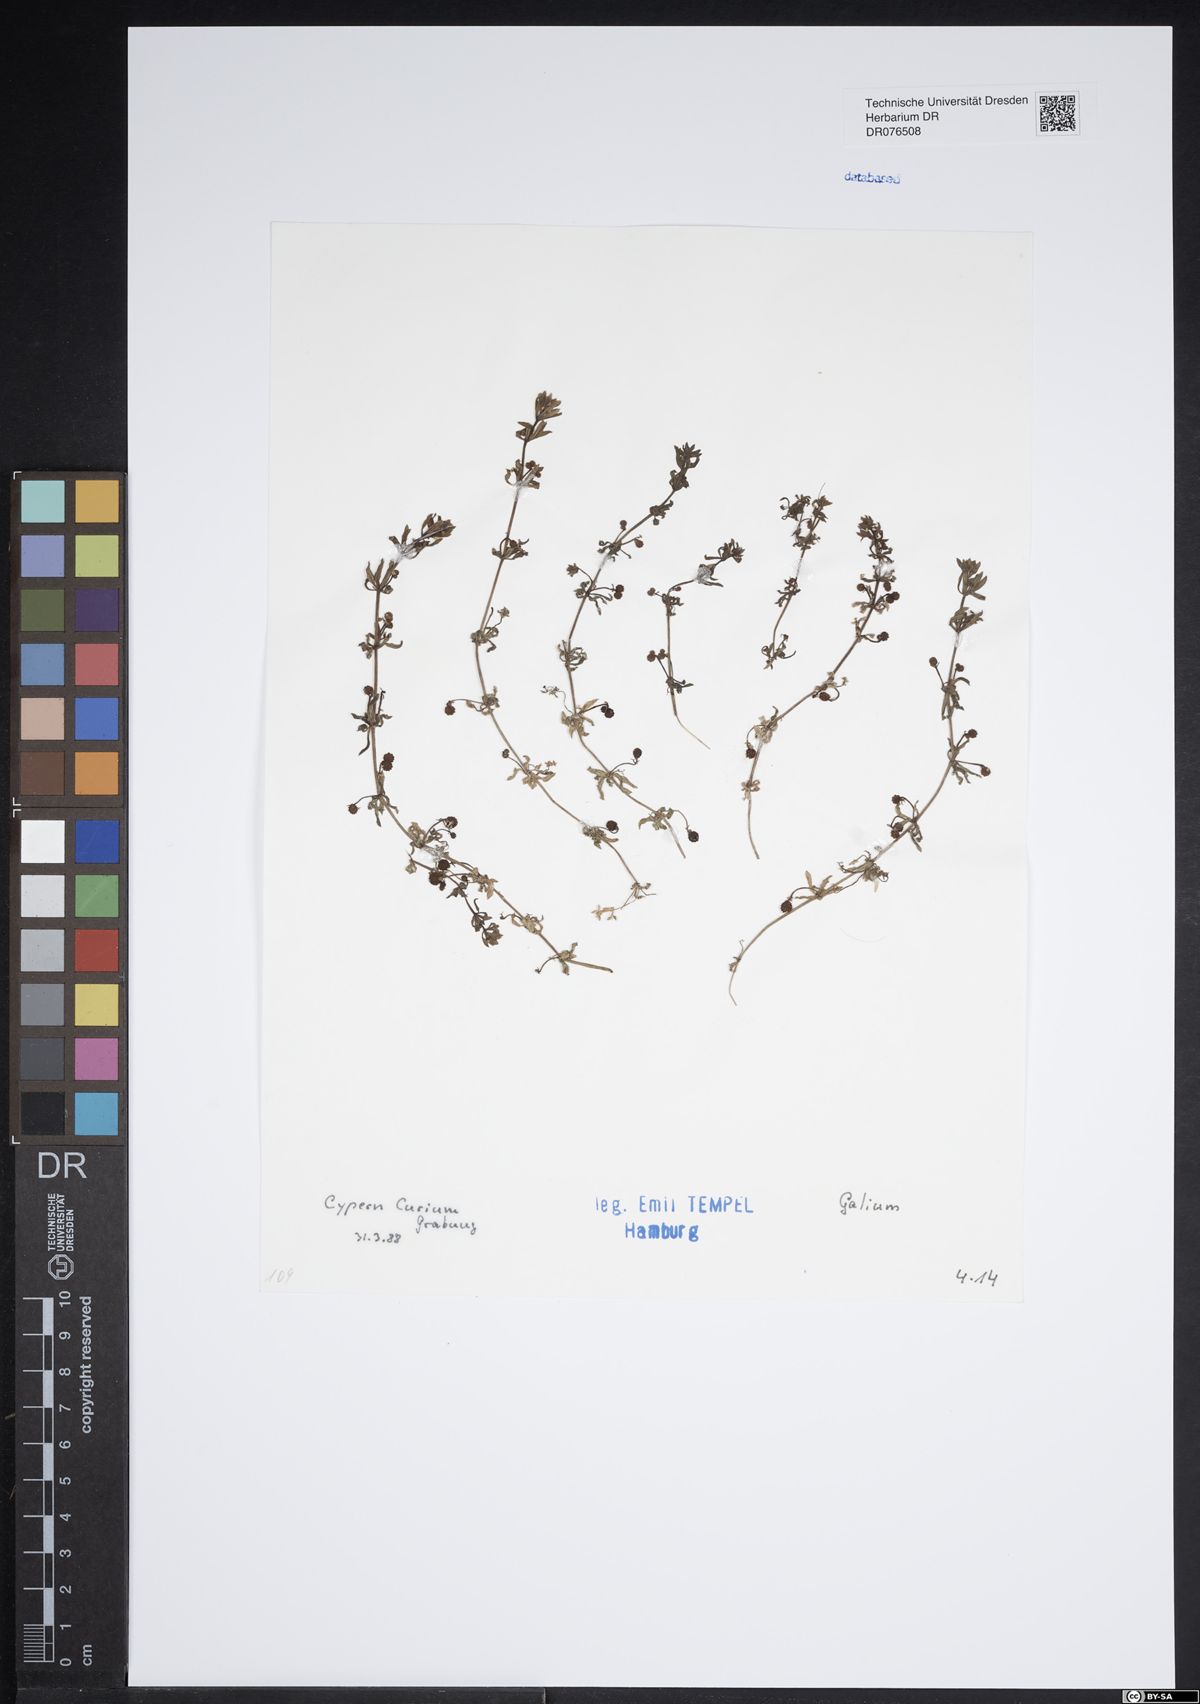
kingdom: Plantae
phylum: Tracheophyta
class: Magnoliopsida
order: Gentianales
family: Rubiaceae
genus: Galium
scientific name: Galium
